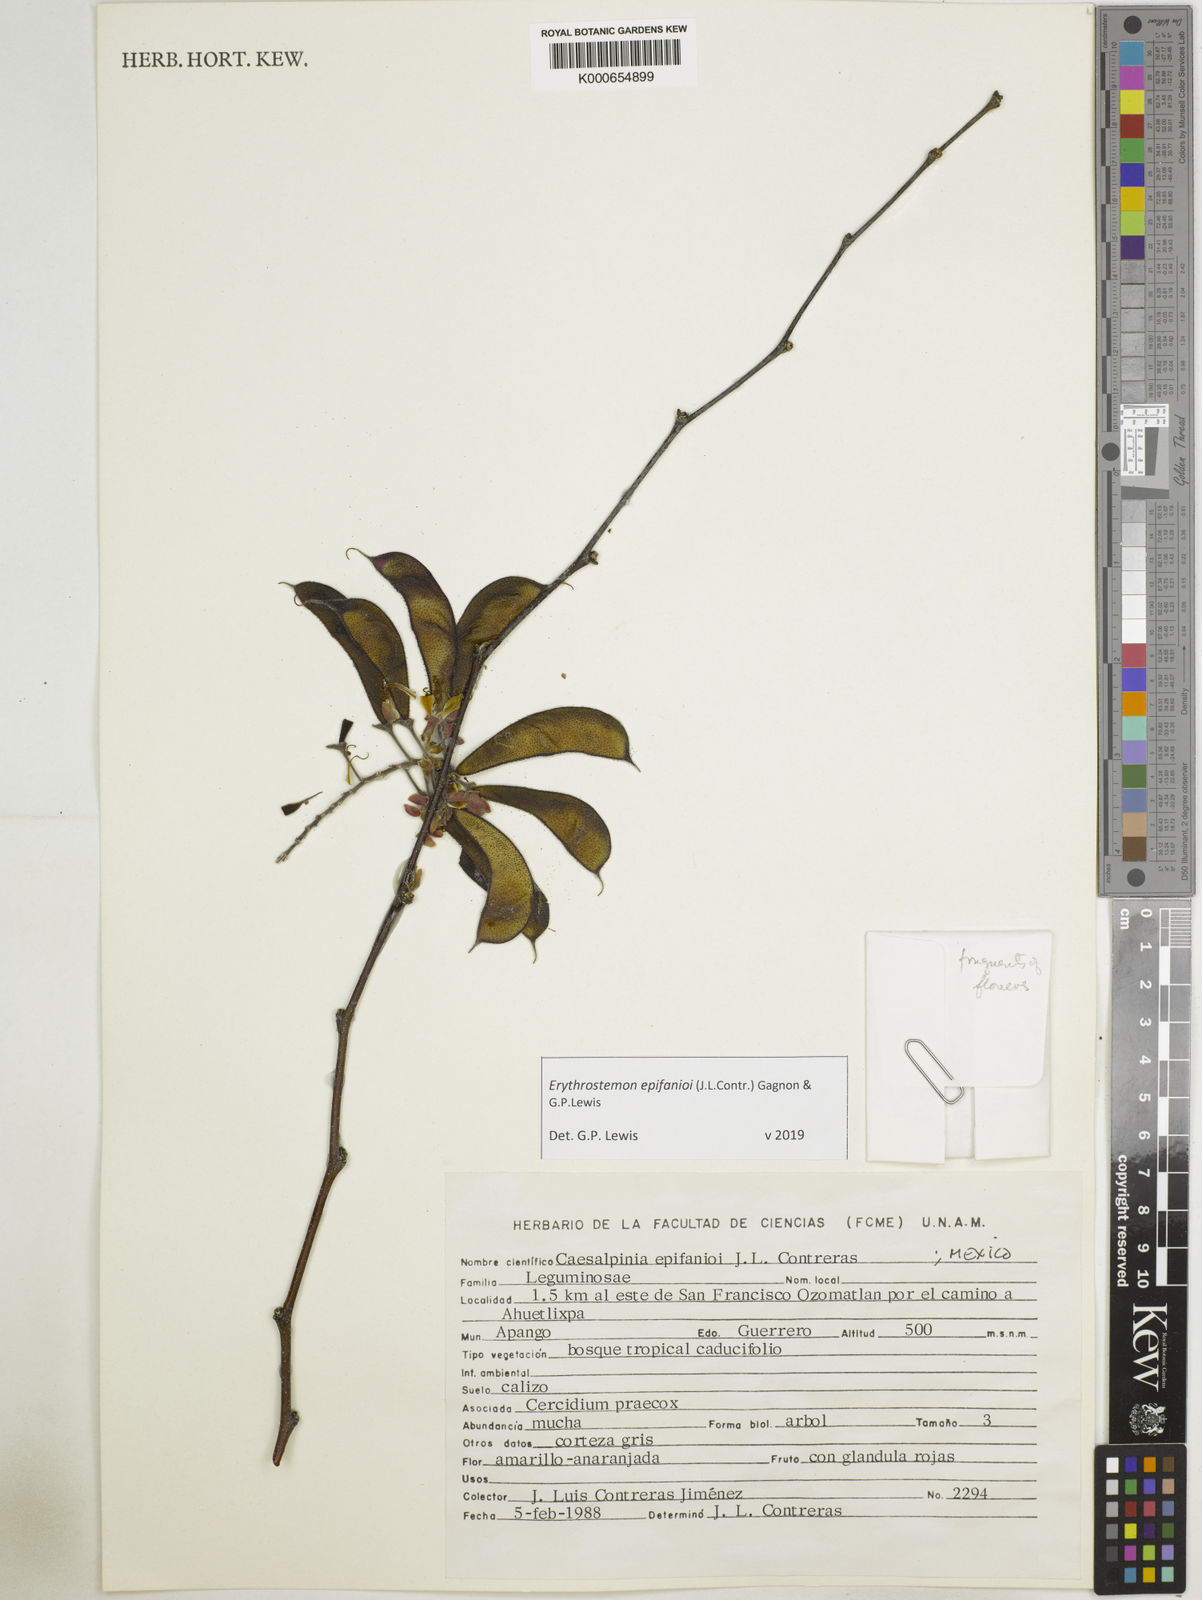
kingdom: Plantae
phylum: Tracheophyta
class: Magnoliopsida
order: Fabales
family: Fabaceae
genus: Erythrostemon
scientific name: Erythrostemon epifanioi
